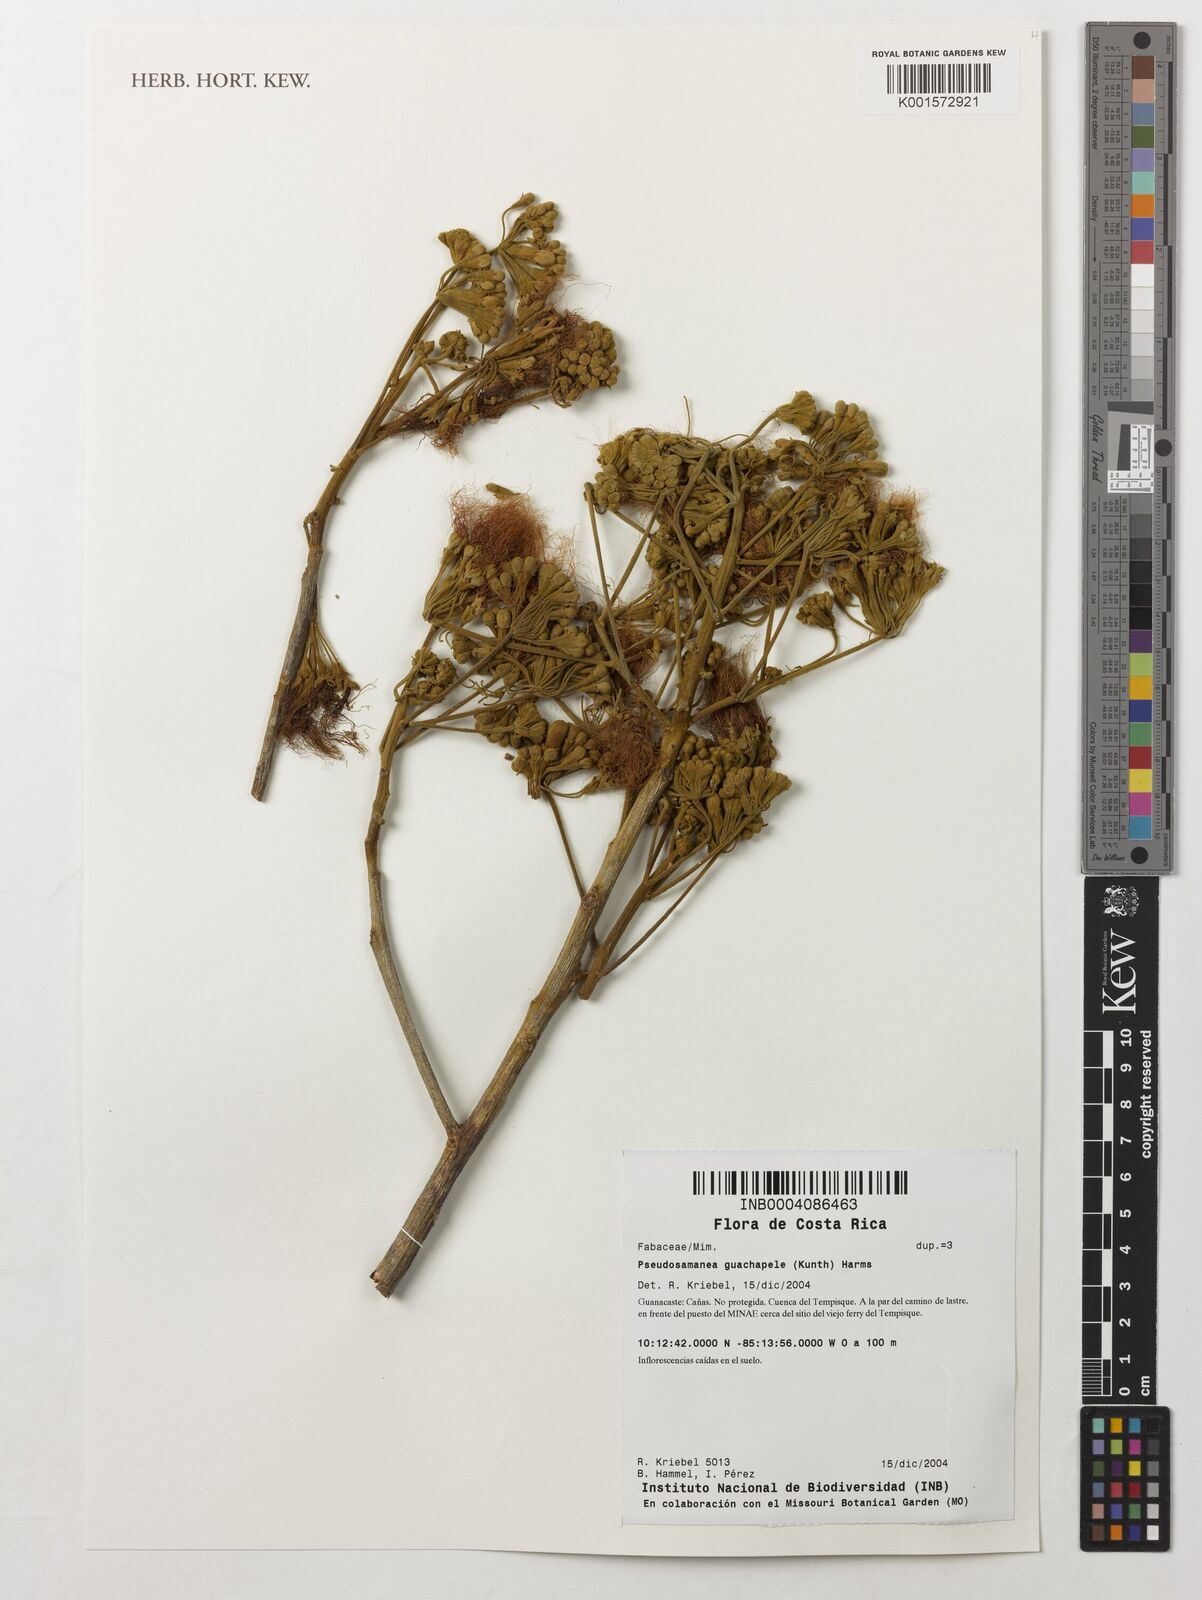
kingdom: Plantae
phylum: Tracheophyta
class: Magnoliopsida
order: Fabales
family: Fabaceae
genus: Pseudosamanea
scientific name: Pseudosamanea guachapele
